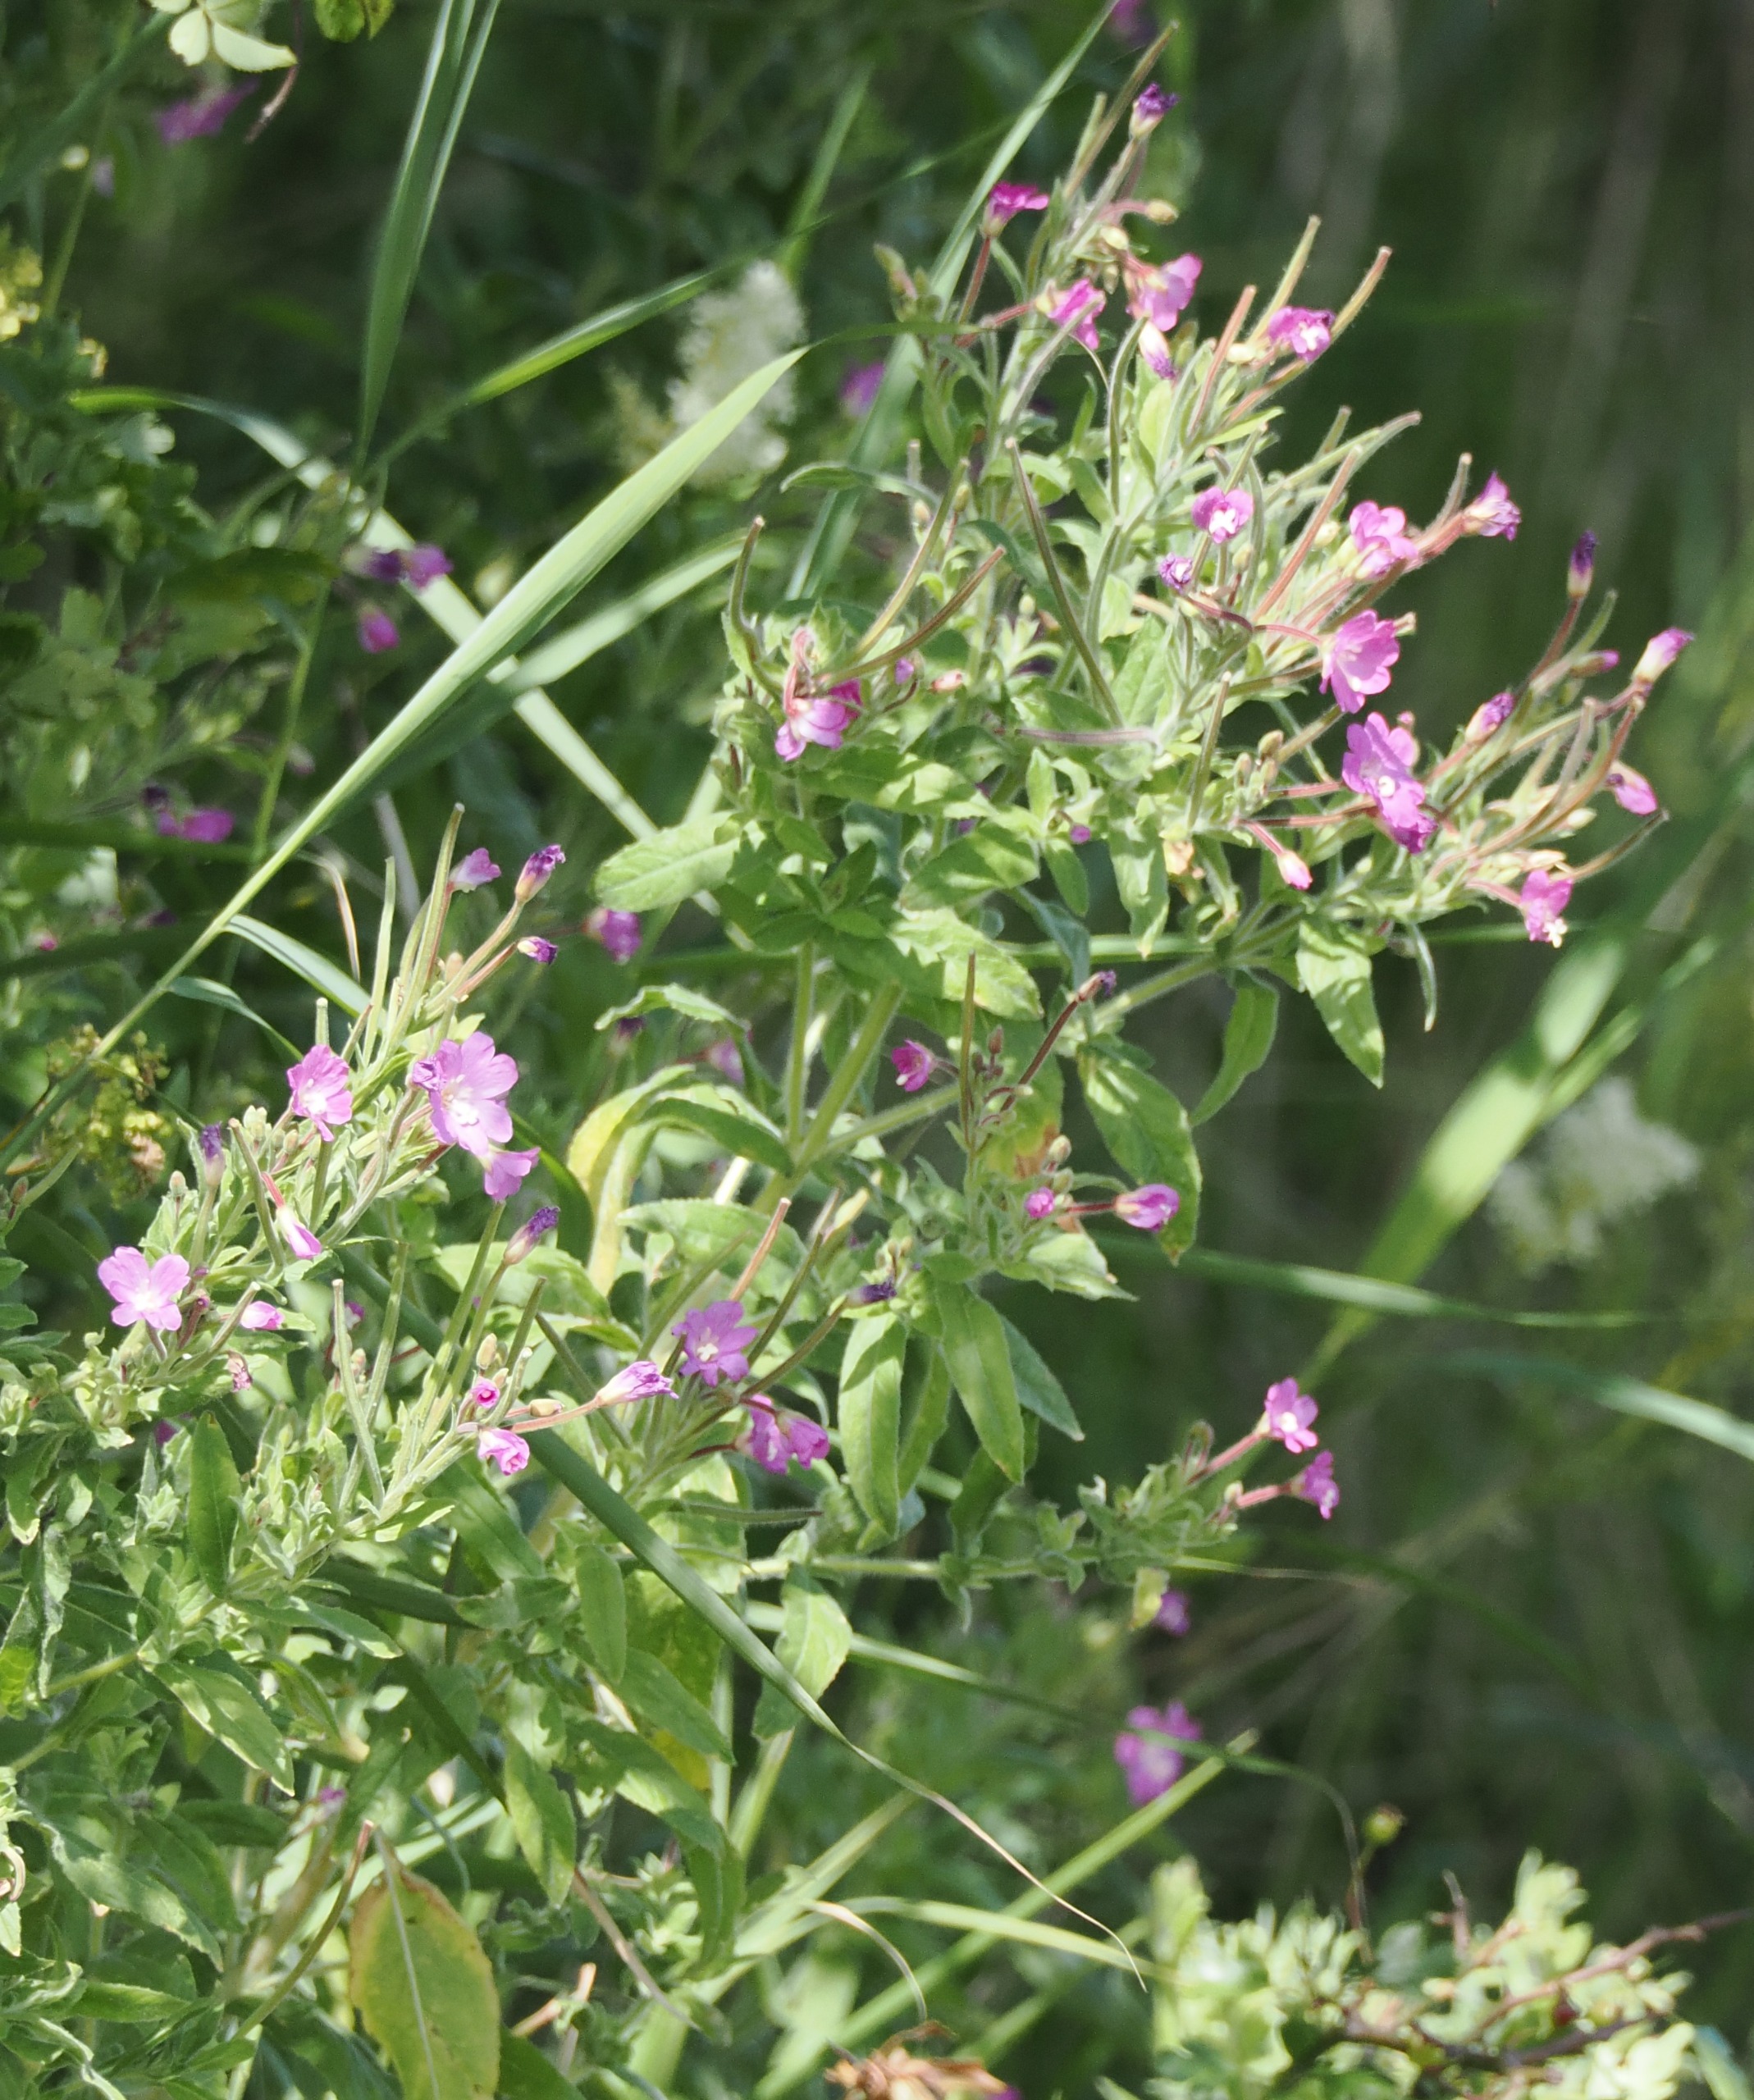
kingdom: Plantae
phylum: Tracheophyta
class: Magnoliopsida
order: Myrtales
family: Onagraceae
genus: Epilobium
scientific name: Epilobium hirsutum
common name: Lådden dueurt
